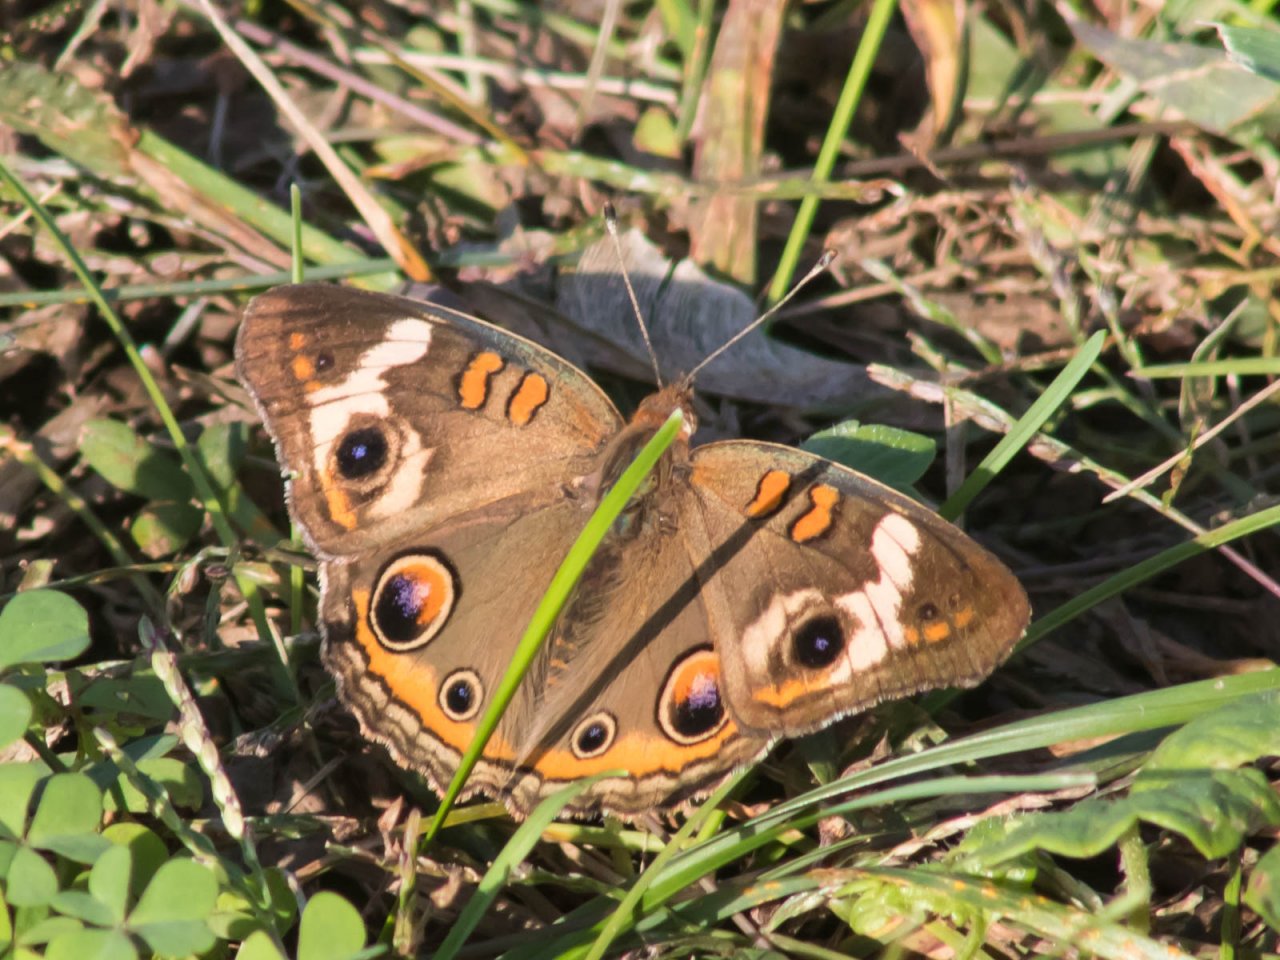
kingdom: Animalia
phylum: Arthropoda
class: Insecta
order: Lepidoptera
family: Nymphalidae
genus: Junonia
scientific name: Junonia coenia
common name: Common Buckeye
